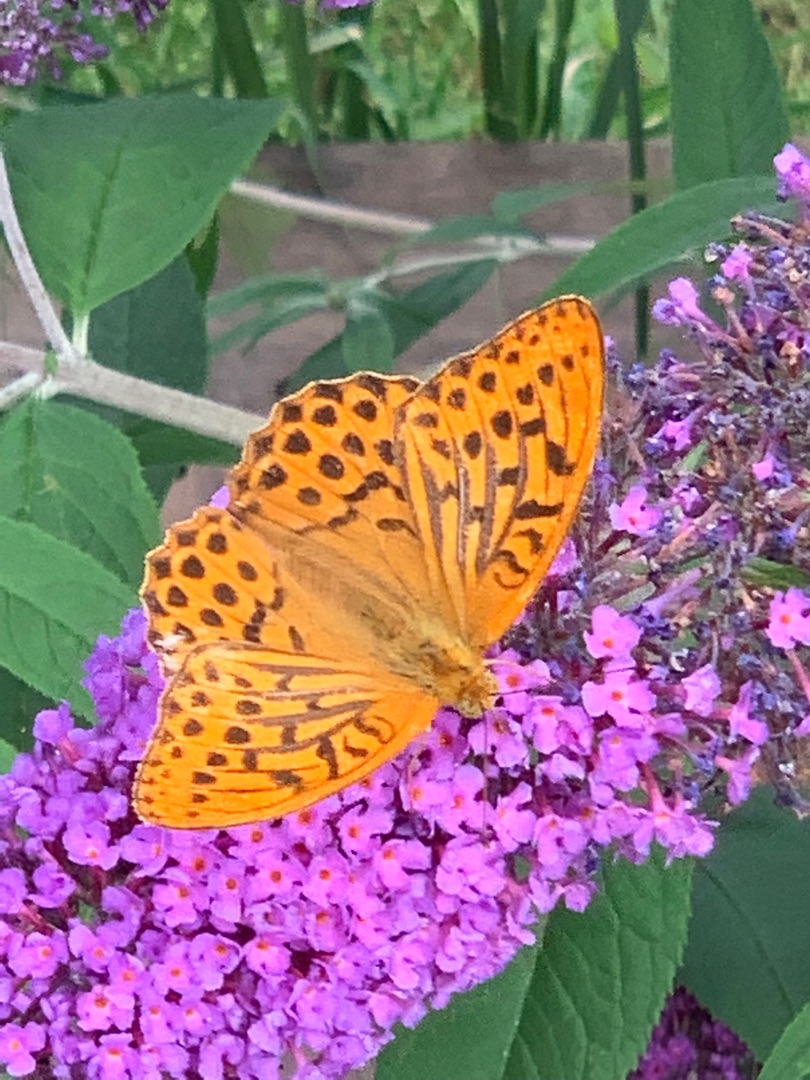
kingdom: Animalia
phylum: Arthropoda
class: Insecta
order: Lepidoptera
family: Nymphalidae
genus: Argynnis
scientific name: Argynnis paphia
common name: Kejserkåbe
